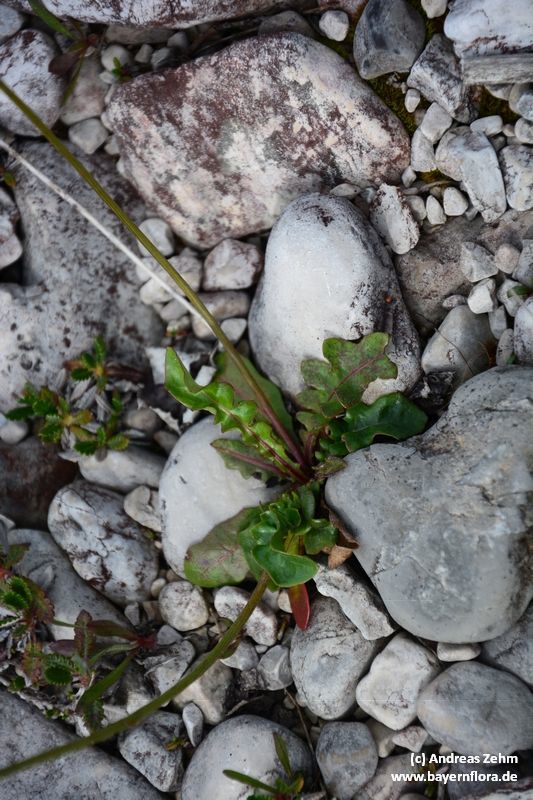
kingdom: Plantae
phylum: Tracheophyta
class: Magnoliopsida
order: Asterales
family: Asteraceae
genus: Leontodon
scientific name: Leontodon hyoseroides
